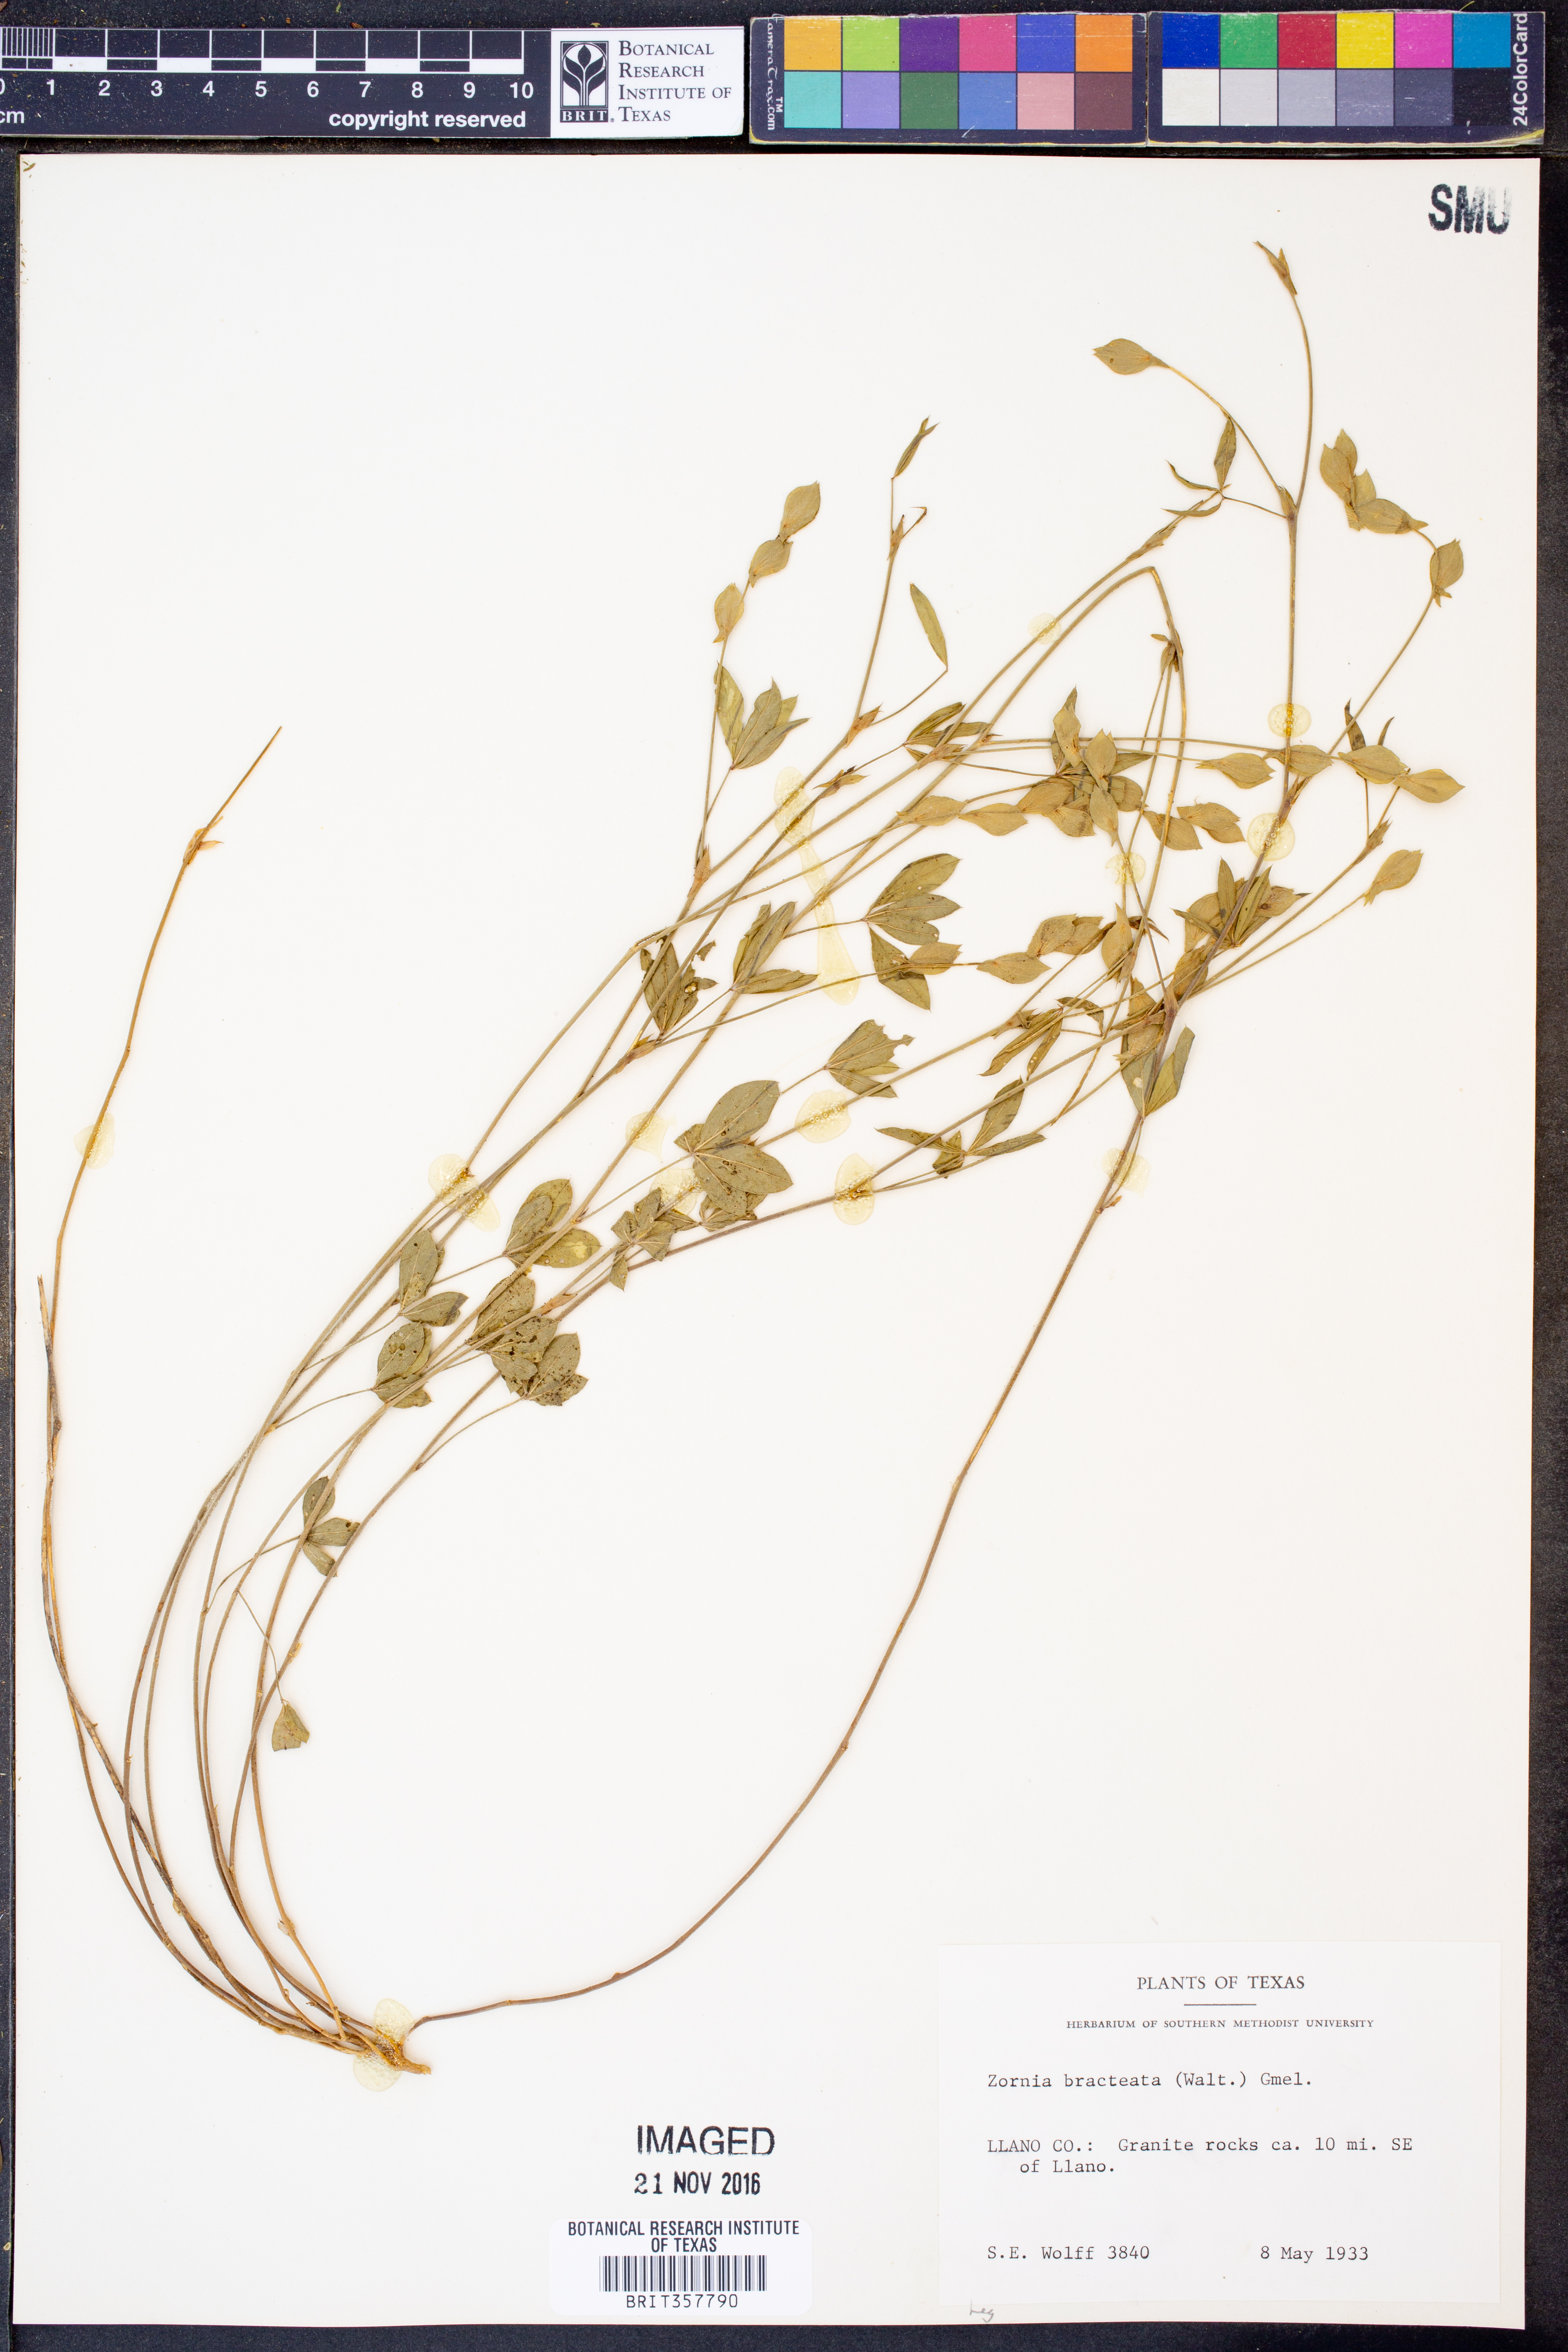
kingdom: Plantae
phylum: Tracheophyta
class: Magnoliopsida
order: Fabales
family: Fabaceae
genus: Zornia
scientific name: Zornia bracteata
